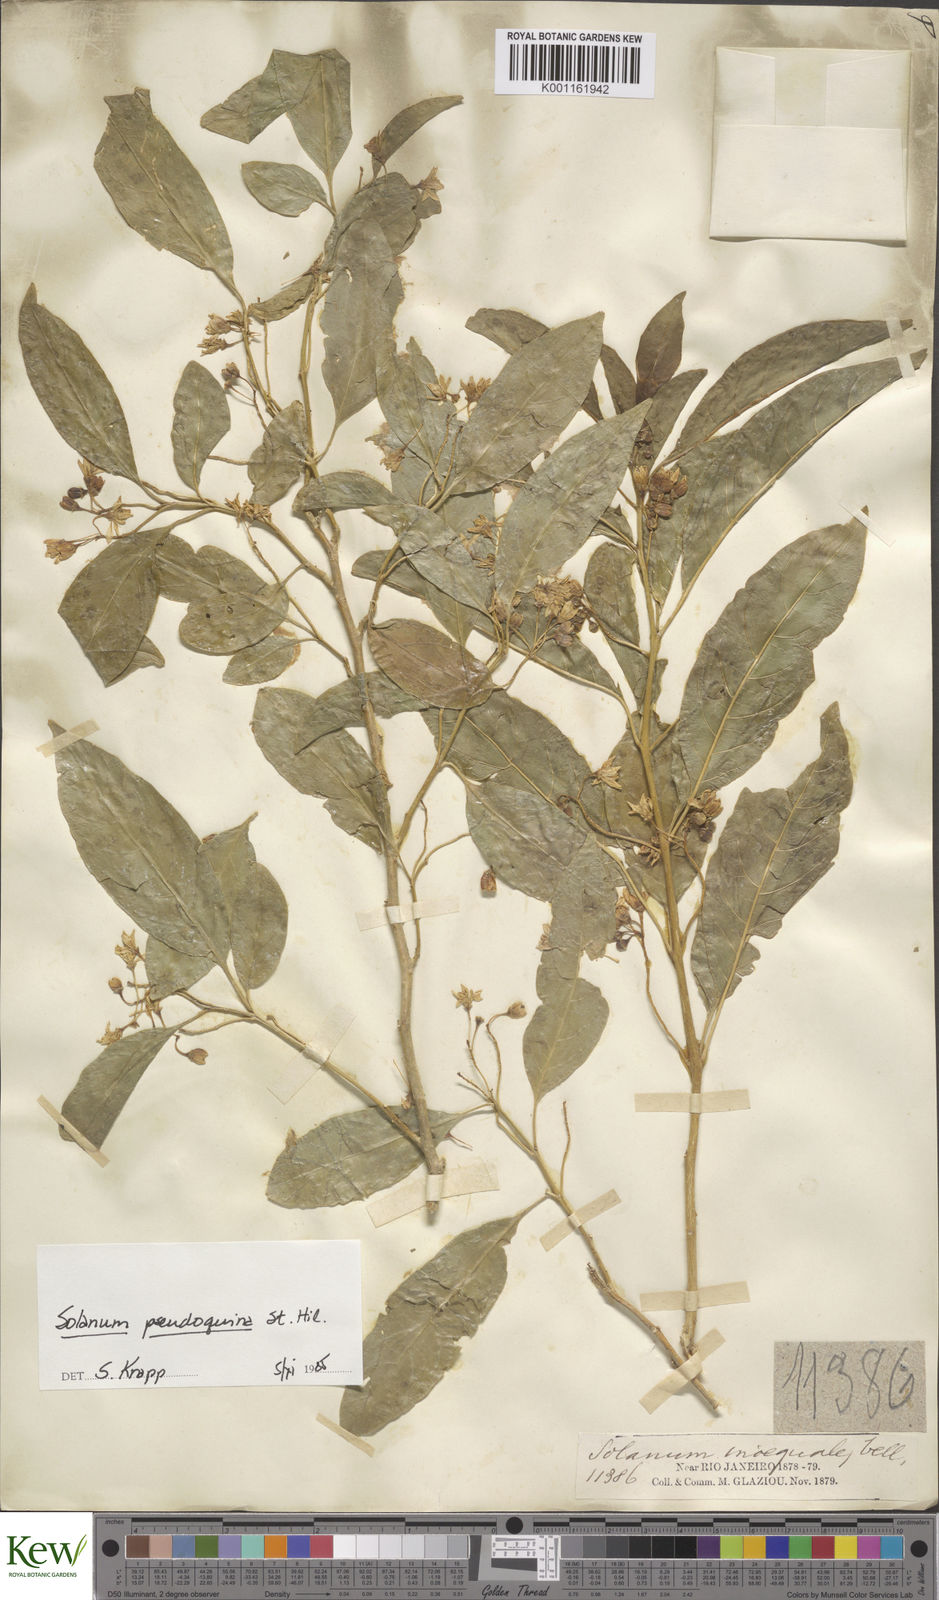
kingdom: Plantae
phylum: Tracheophyta
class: Magnoliopsida
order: Solanales
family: Solanaceae
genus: Solanum
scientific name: Solanum pseudoquina
